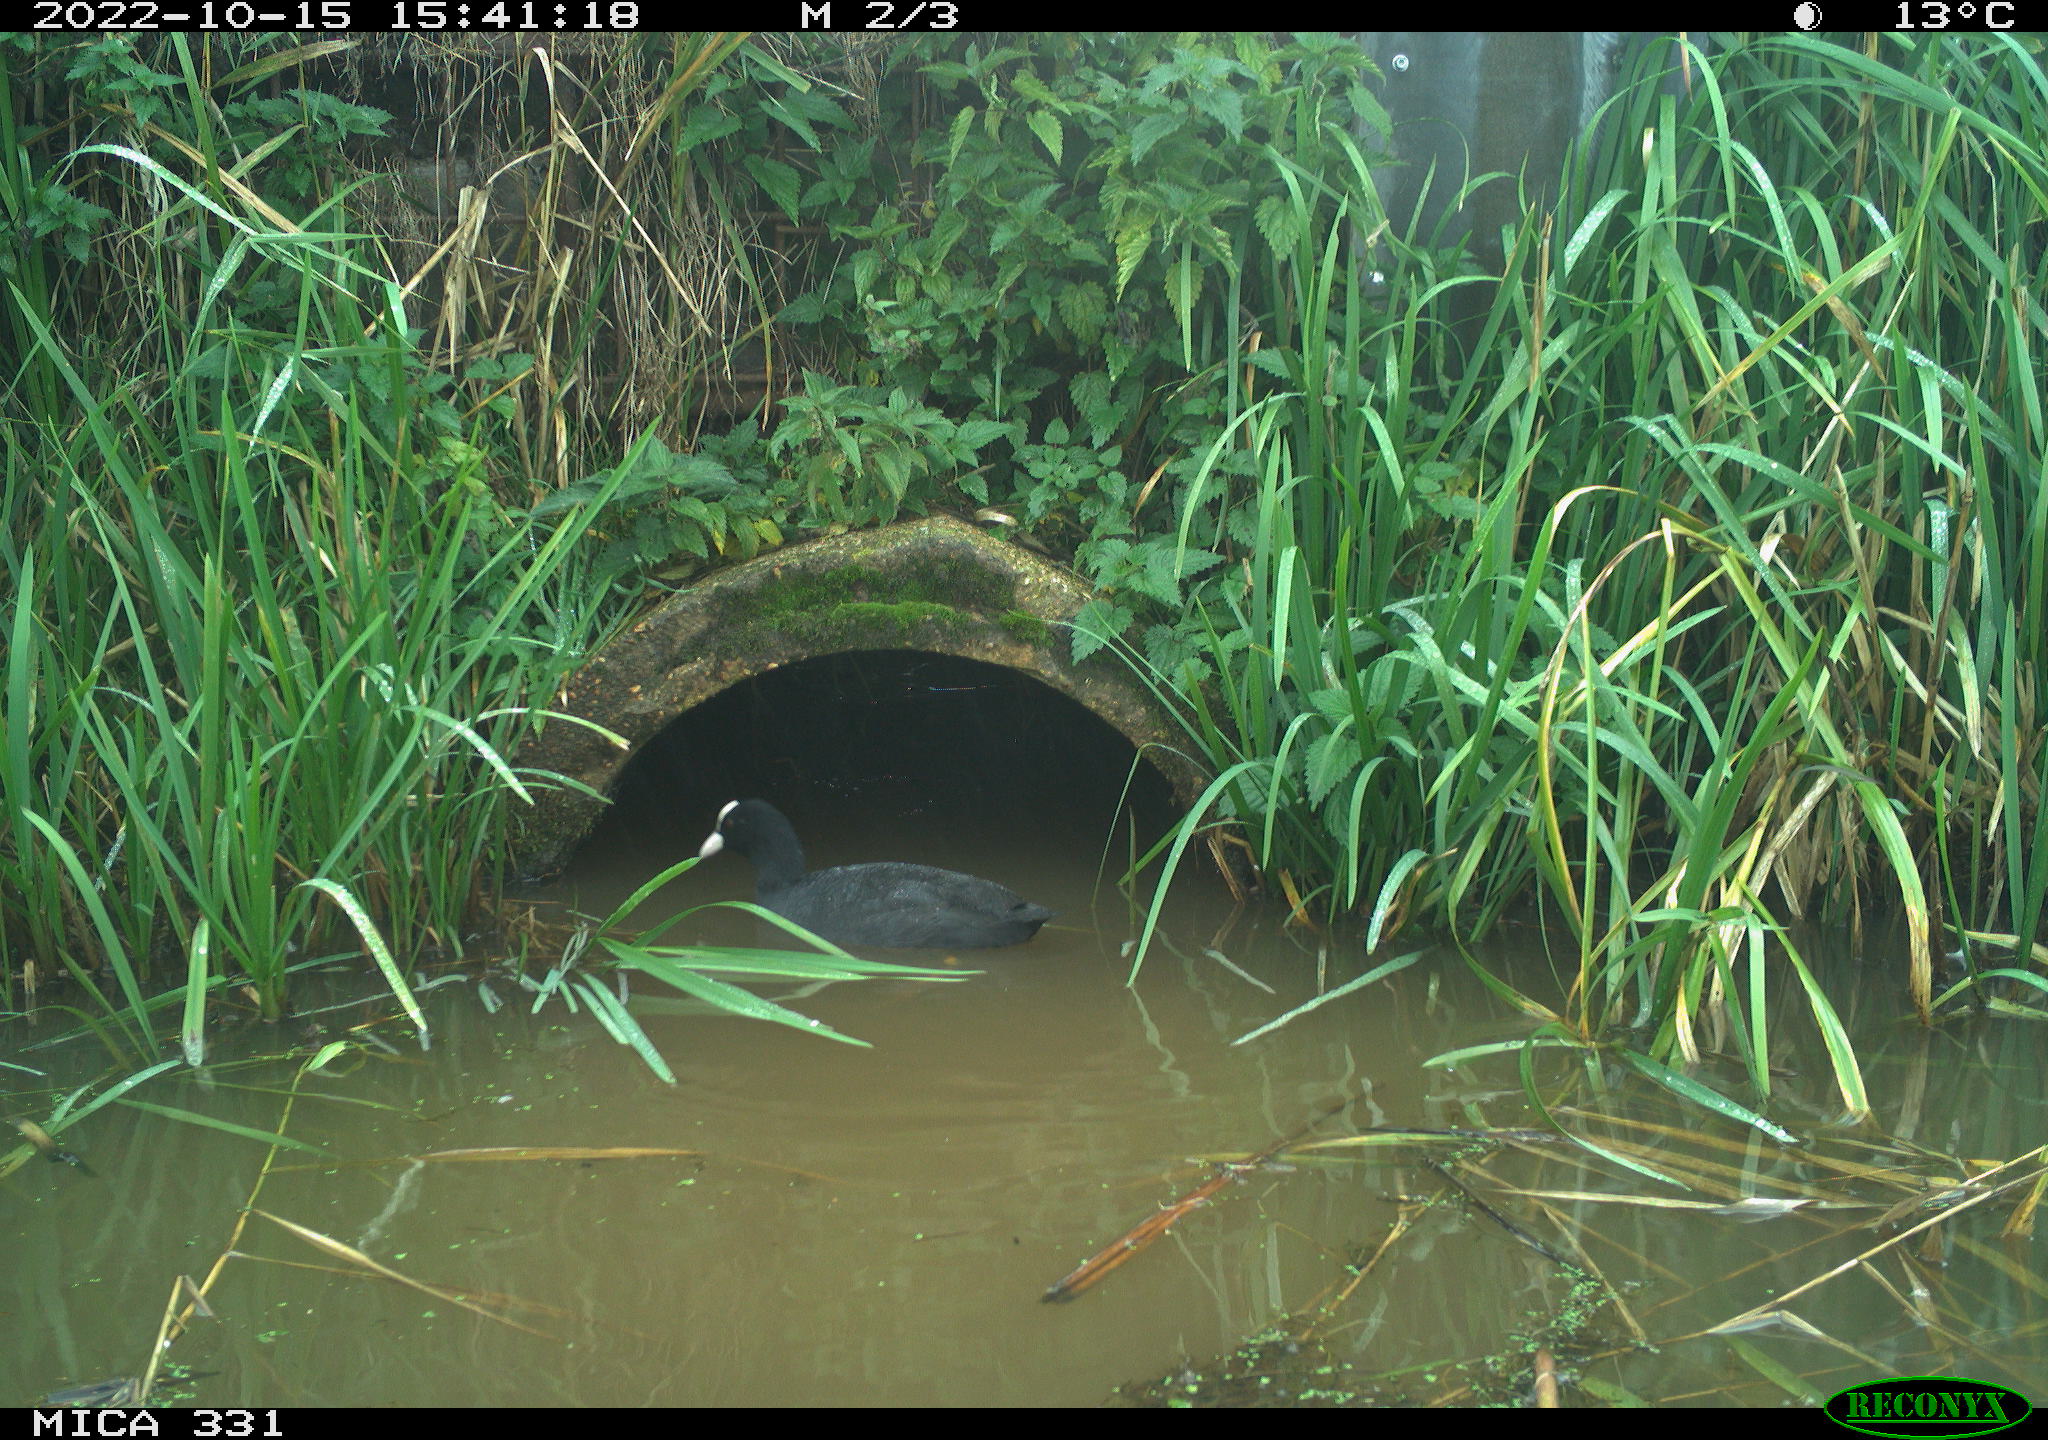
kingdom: Animalia
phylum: Chordata
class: Aves
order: Gruiformes
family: Rallidae
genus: Fulica
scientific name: Fulica atra
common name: Eurasian coot
